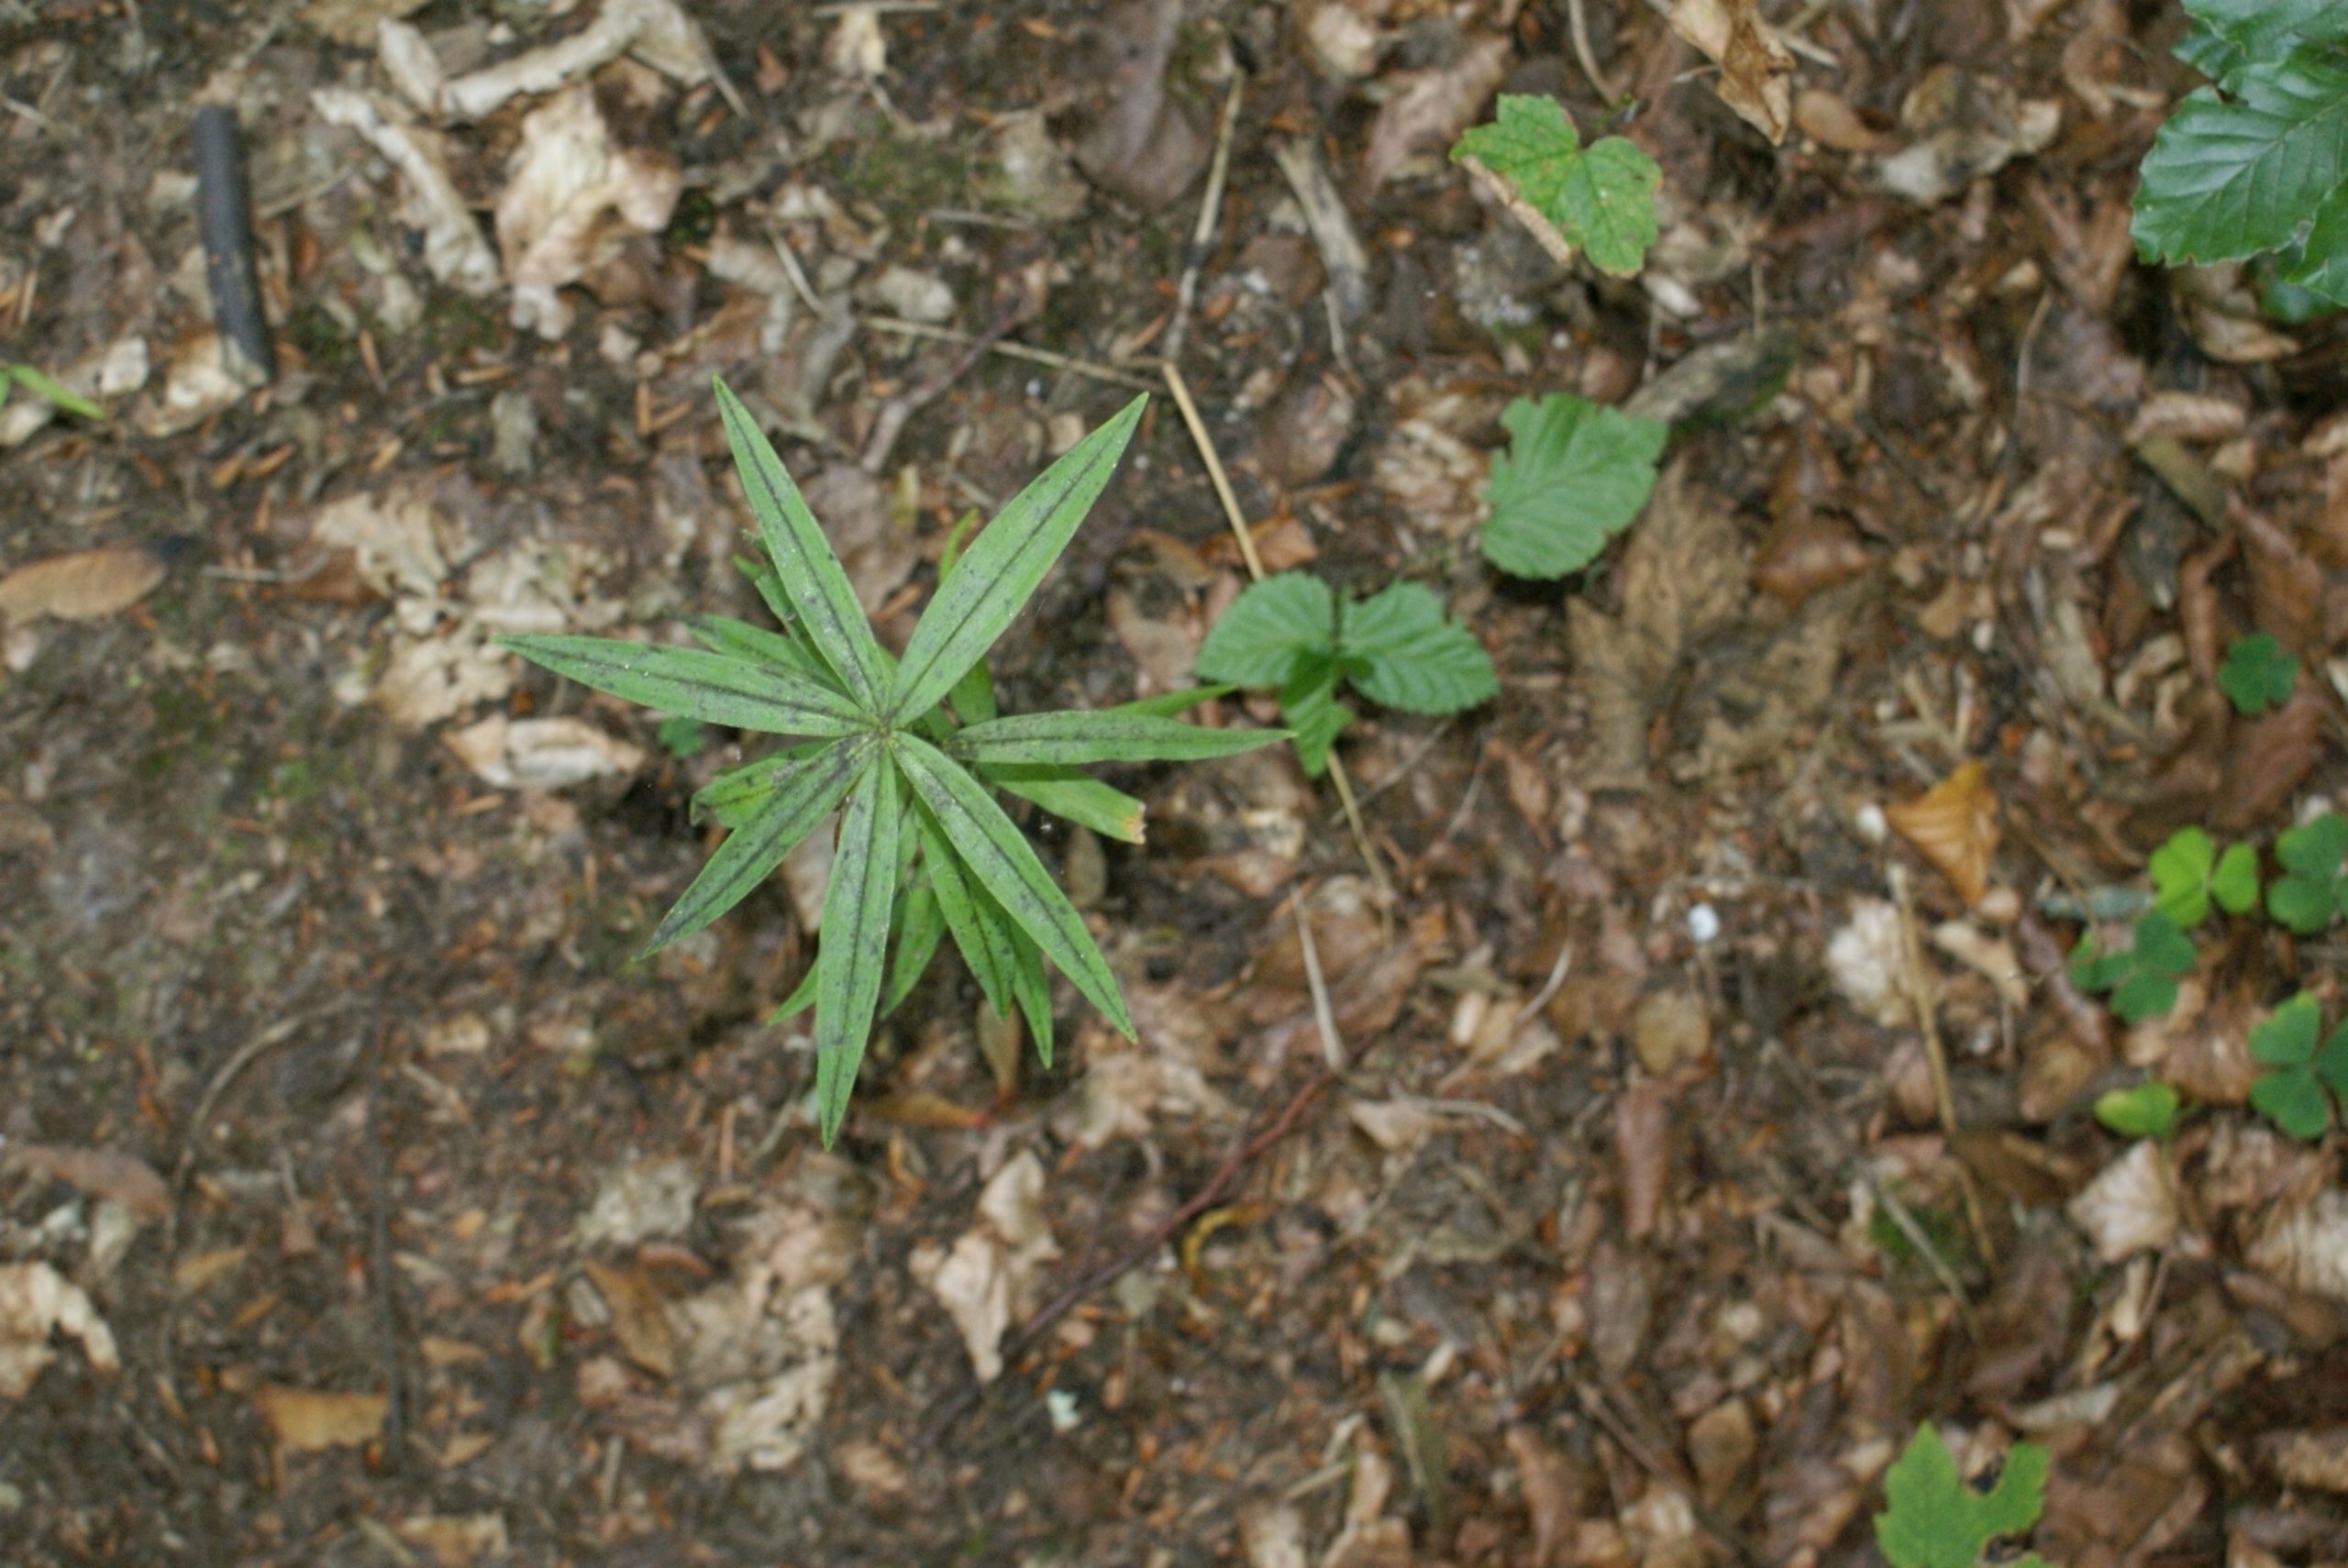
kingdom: Plantae
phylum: Tracheophyta
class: Liliopsida
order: Asparagales
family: Asparagaceae
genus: Polygonatum
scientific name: Polygonatum verticillatum
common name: Krans-konval
